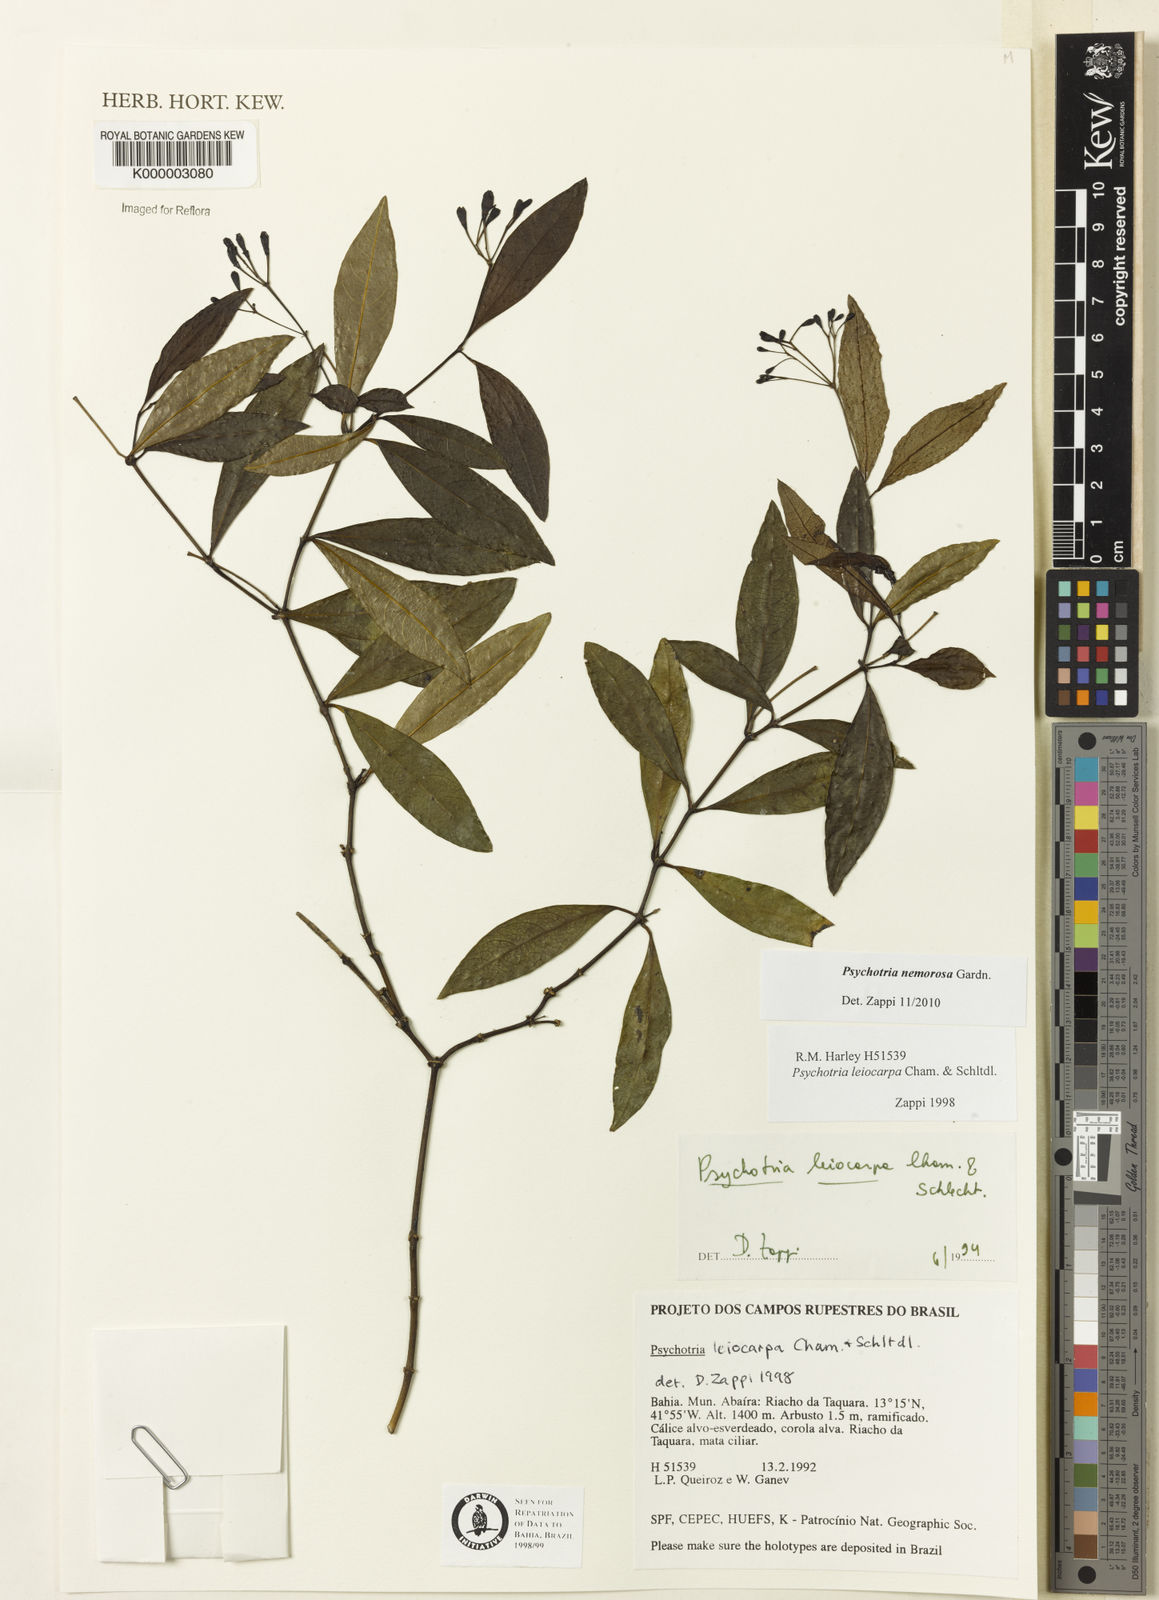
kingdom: Plantae
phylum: Tracheophyta
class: Magnoliopsida
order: Gentianales
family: Rubiaceae
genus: Psychotria
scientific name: Psychotria nemorosa
